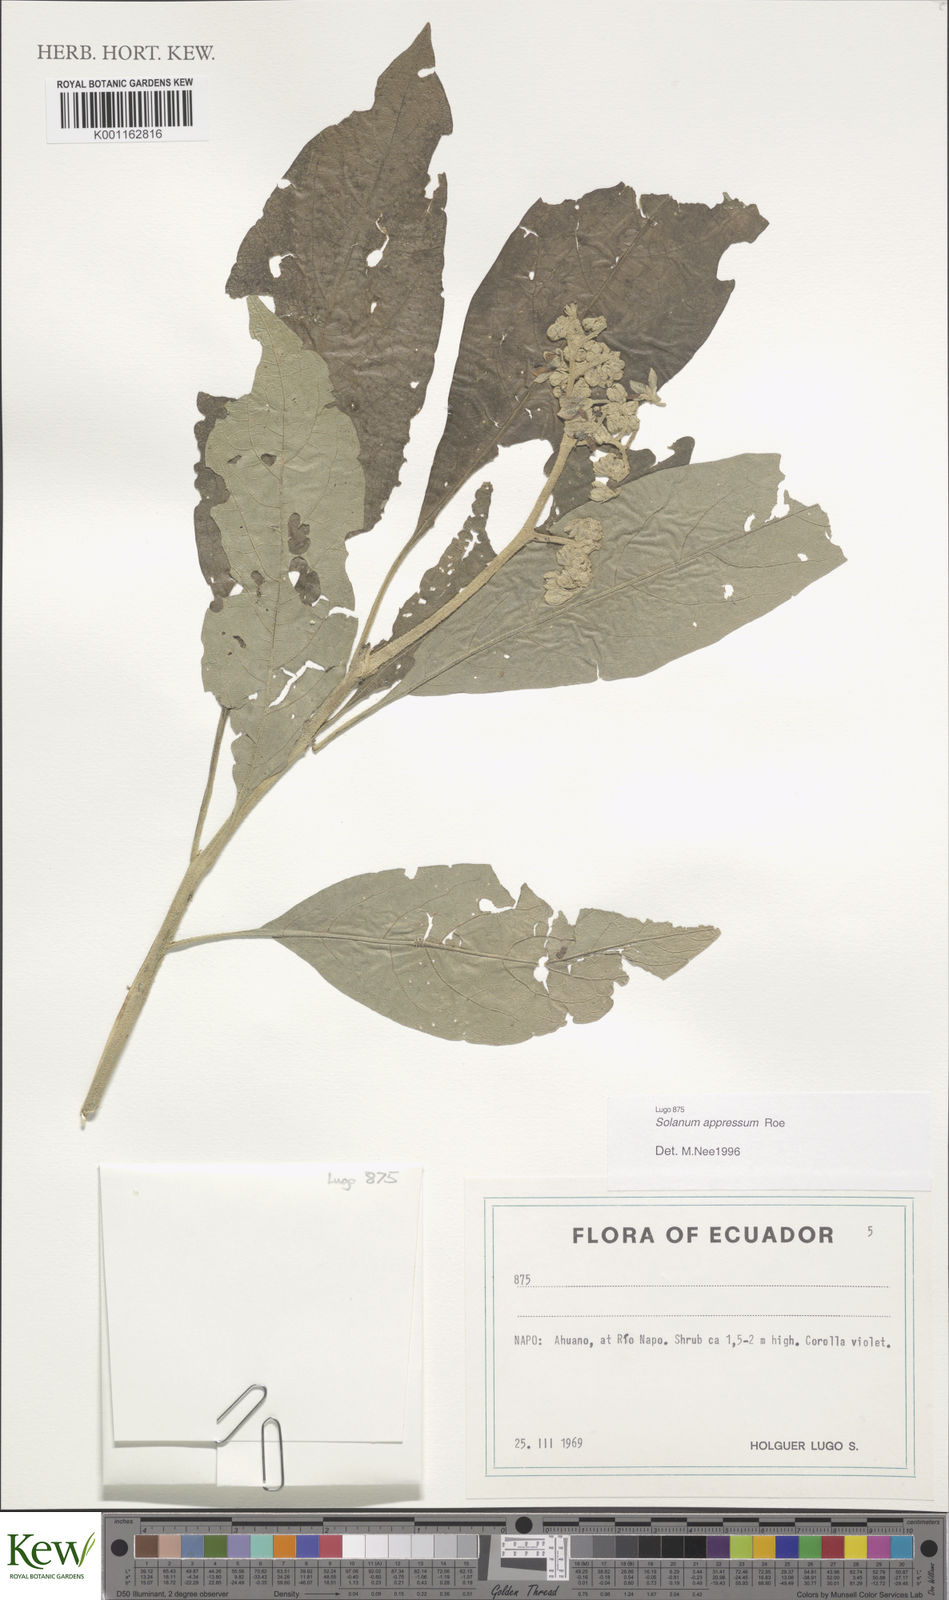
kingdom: Plantae
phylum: Tracheophyta
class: Magnoliopsida
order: Solanales
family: Solanaceae
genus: Solanum
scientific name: Solanum appressum
